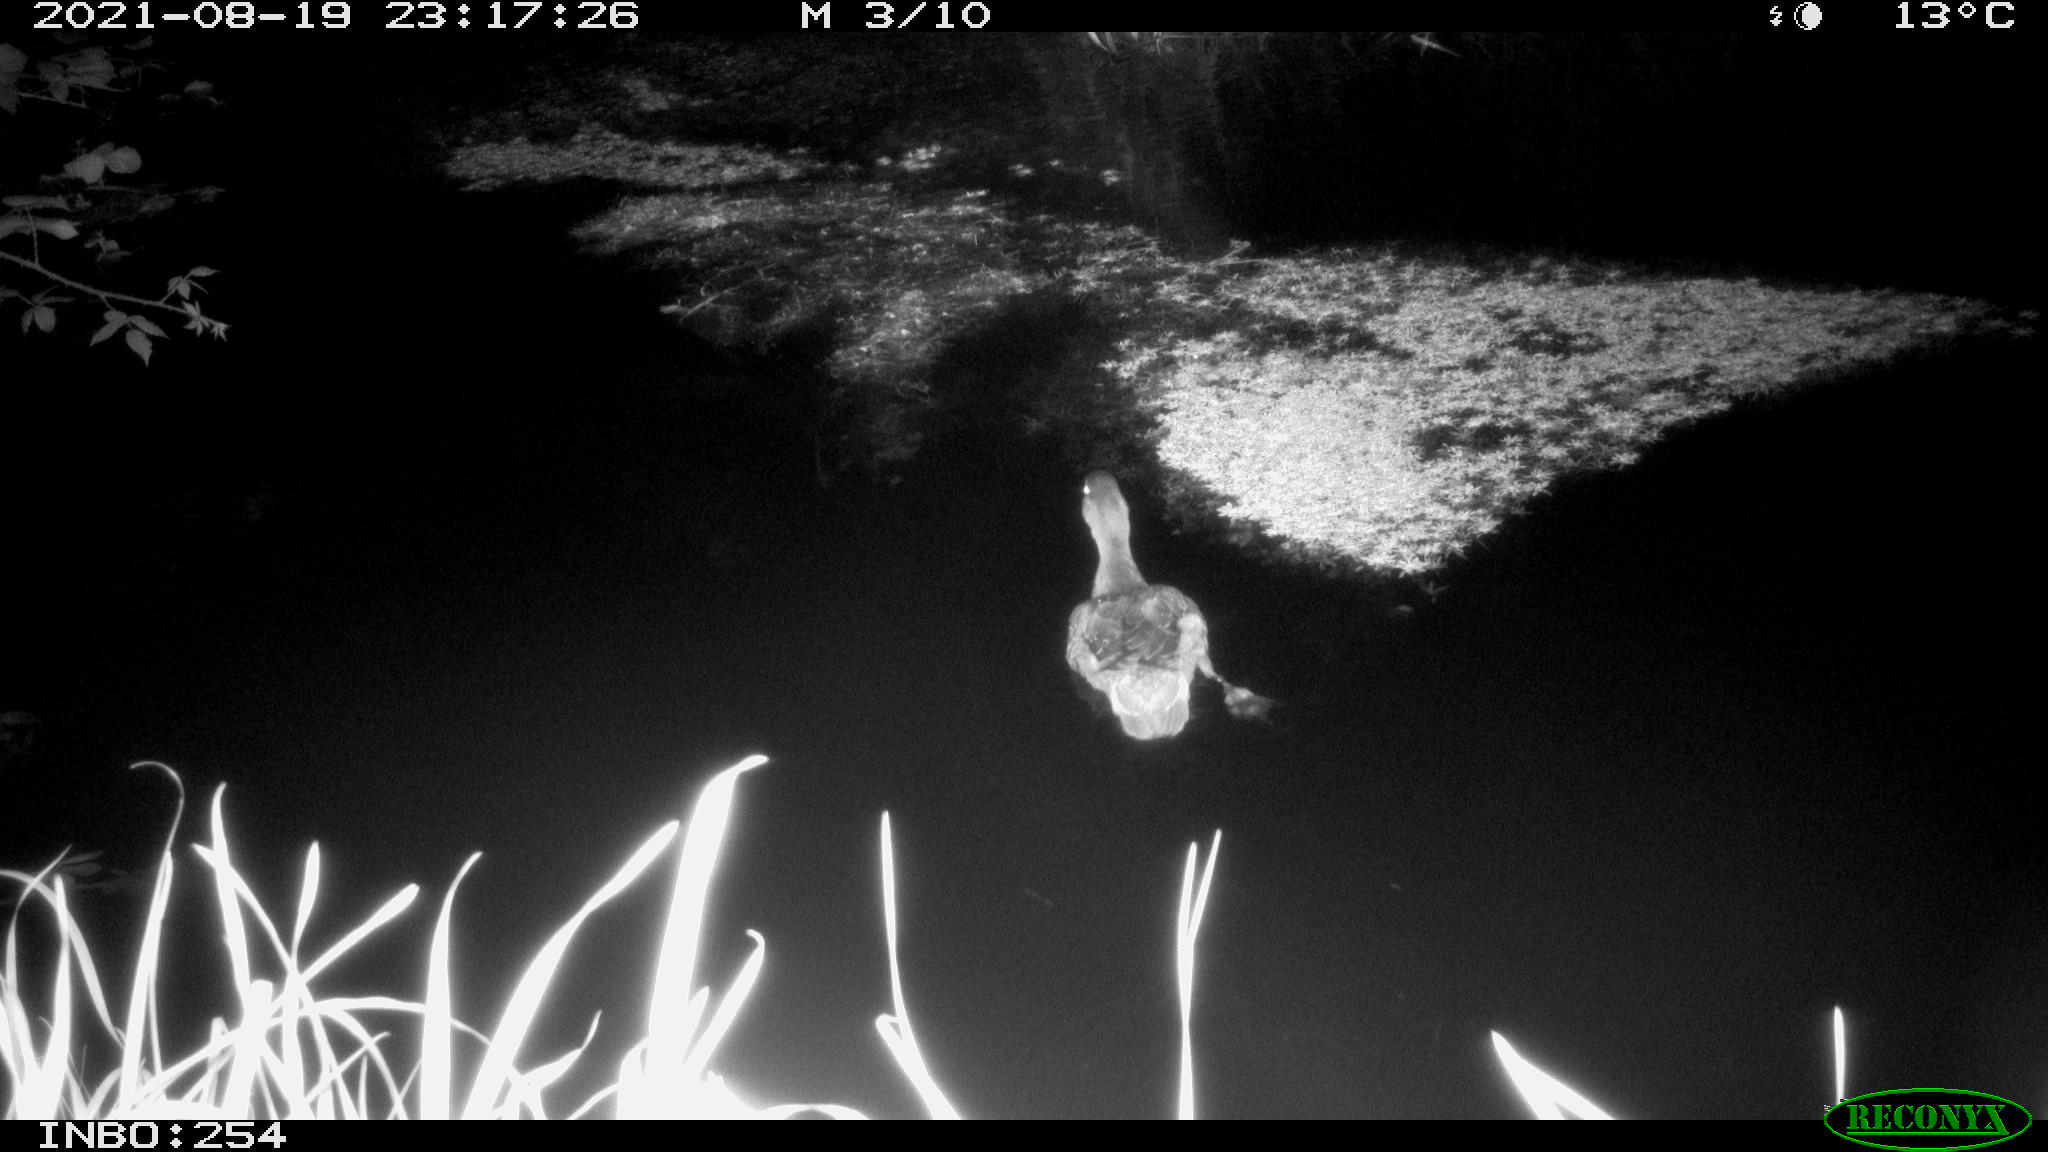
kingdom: Animalia
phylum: Chordata
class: Aves
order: Anseriformes
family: Anatidae
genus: Anas
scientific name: Anas platyrhynchos
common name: Mallard
